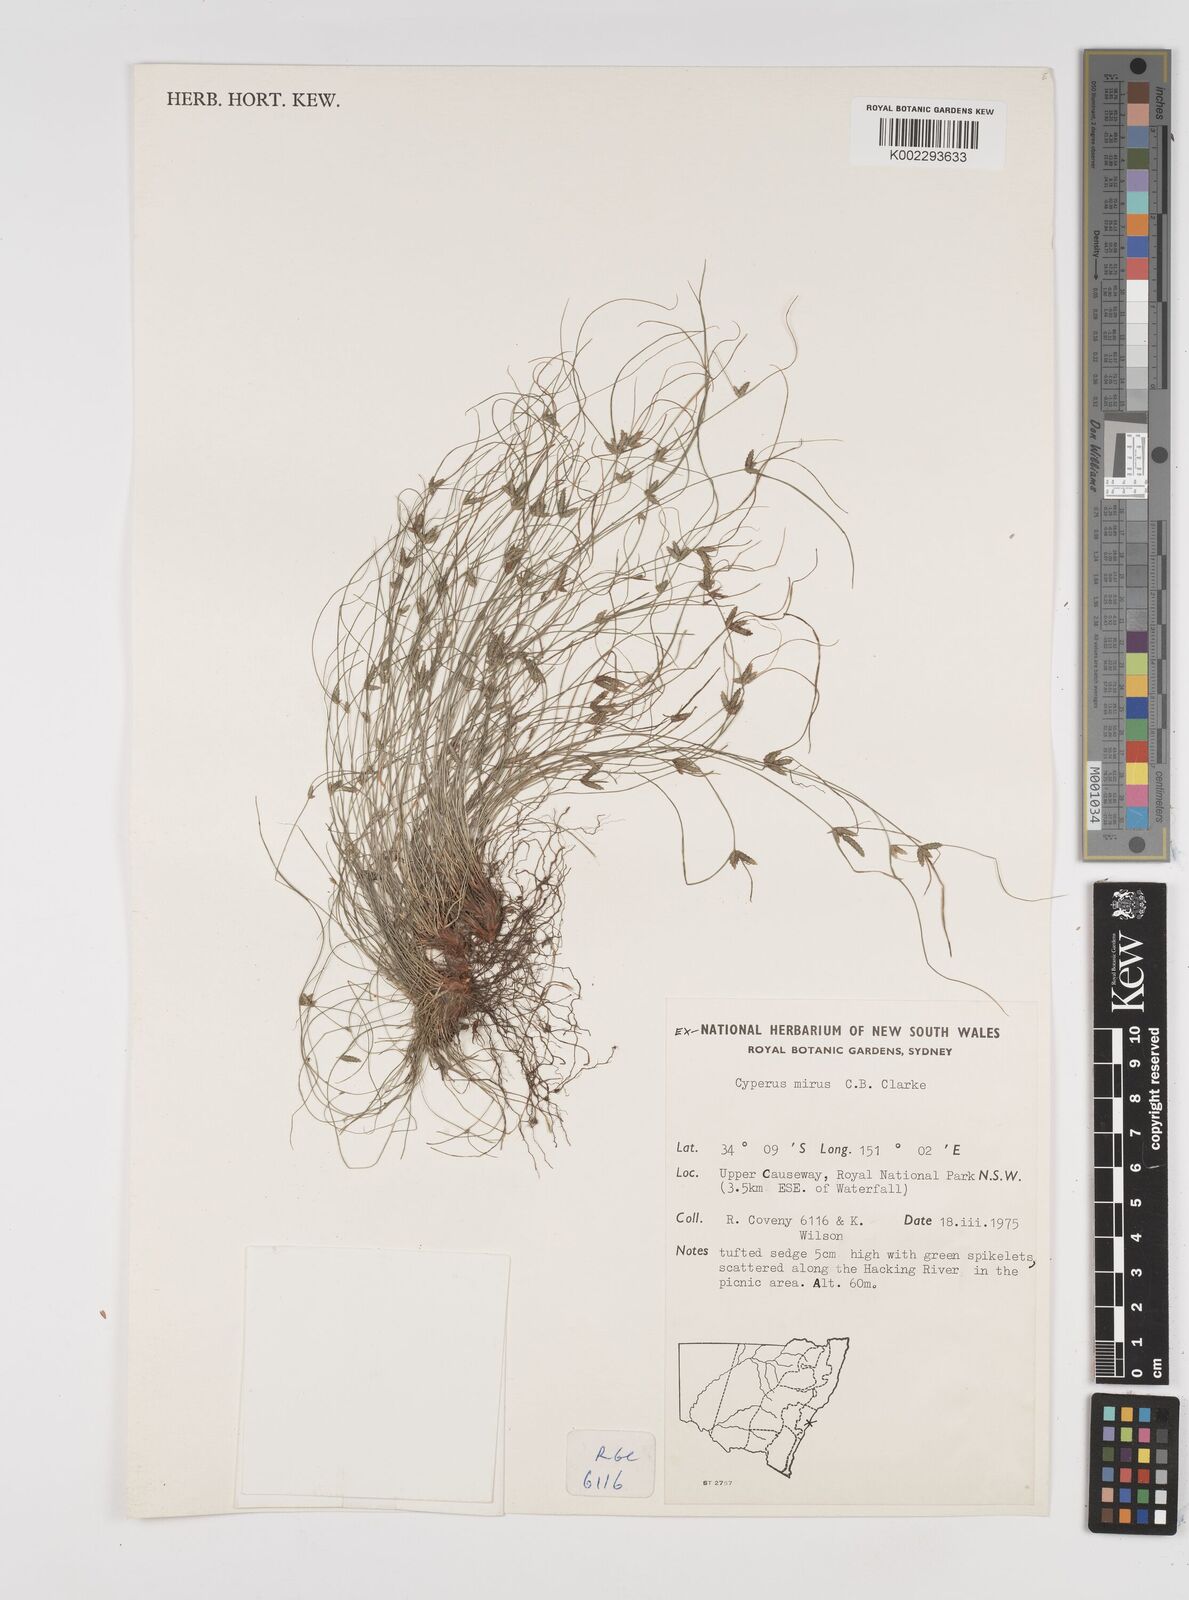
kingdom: Plantae
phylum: Tracheophyta
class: Liliopsida
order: Poales
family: Cyperaceae
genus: Cyperus
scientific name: Cyperus mirus
